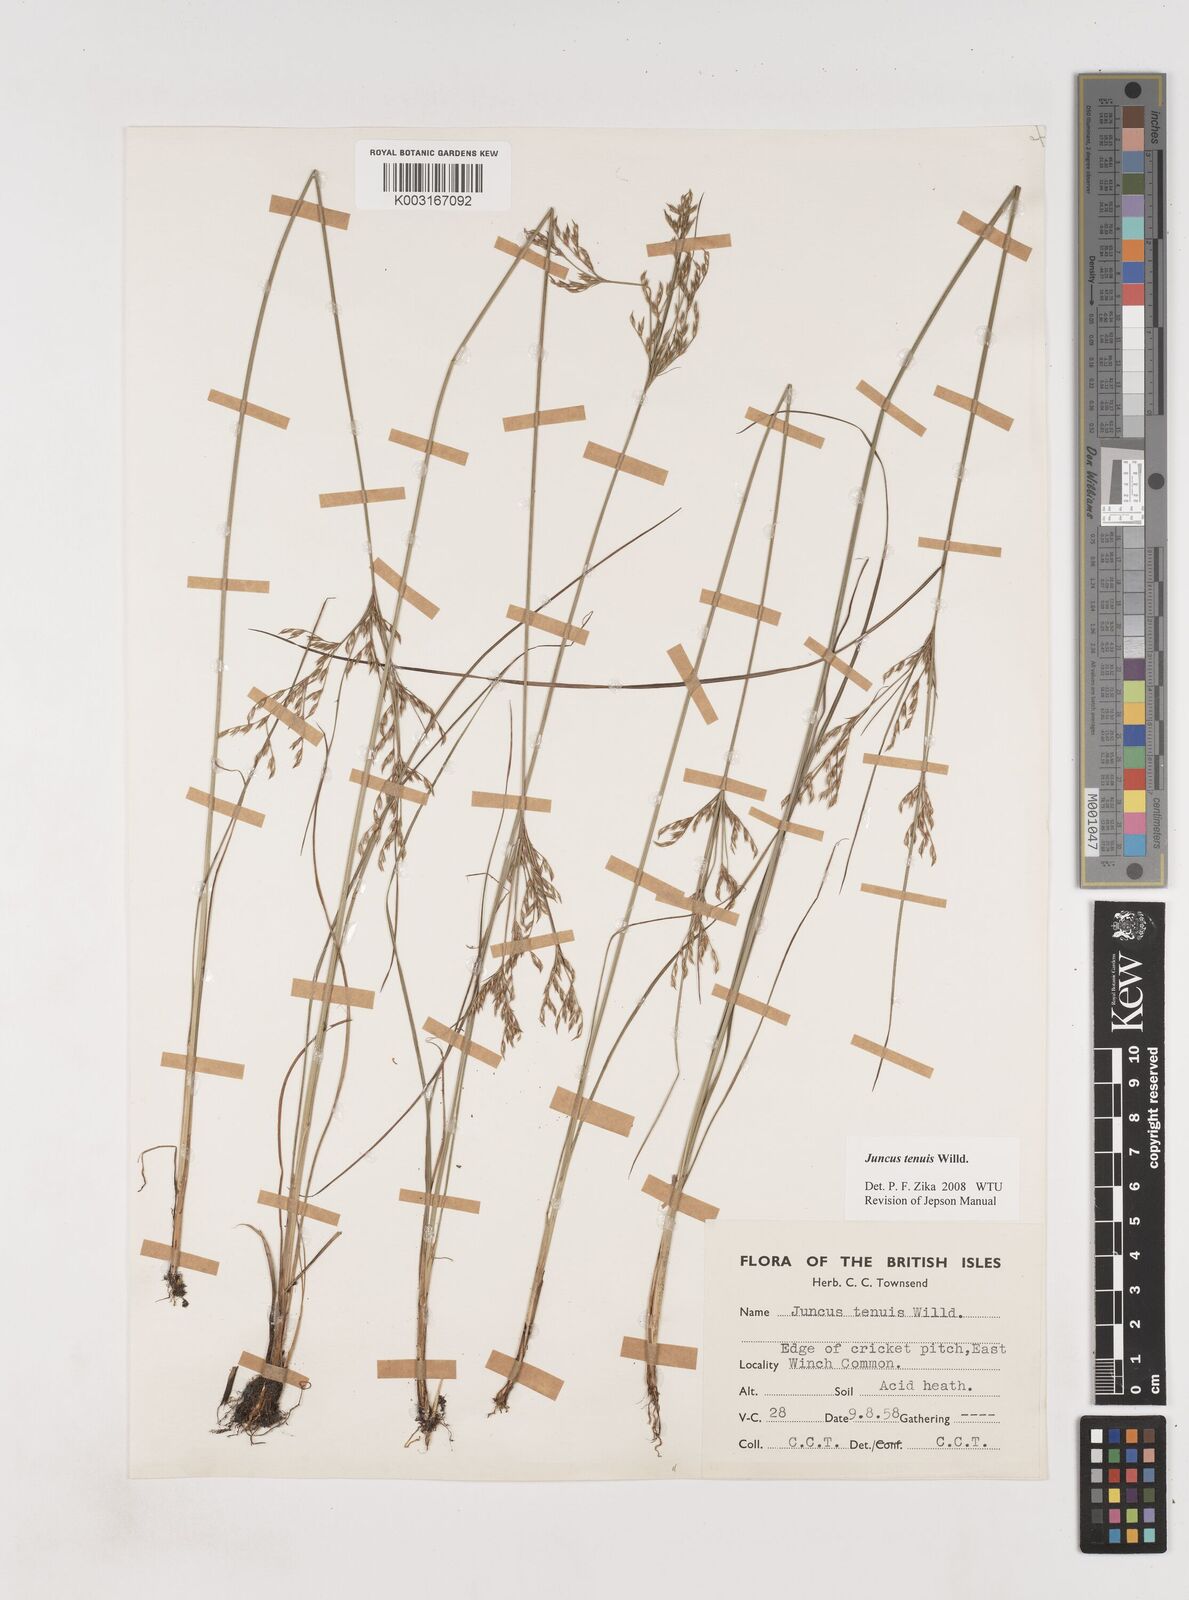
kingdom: Plantae
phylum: Tracheophyta
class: Liliopsida
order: Poales
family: Juncaceae
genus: Juncus
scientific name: Juncus tenuis
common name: Slender rush
